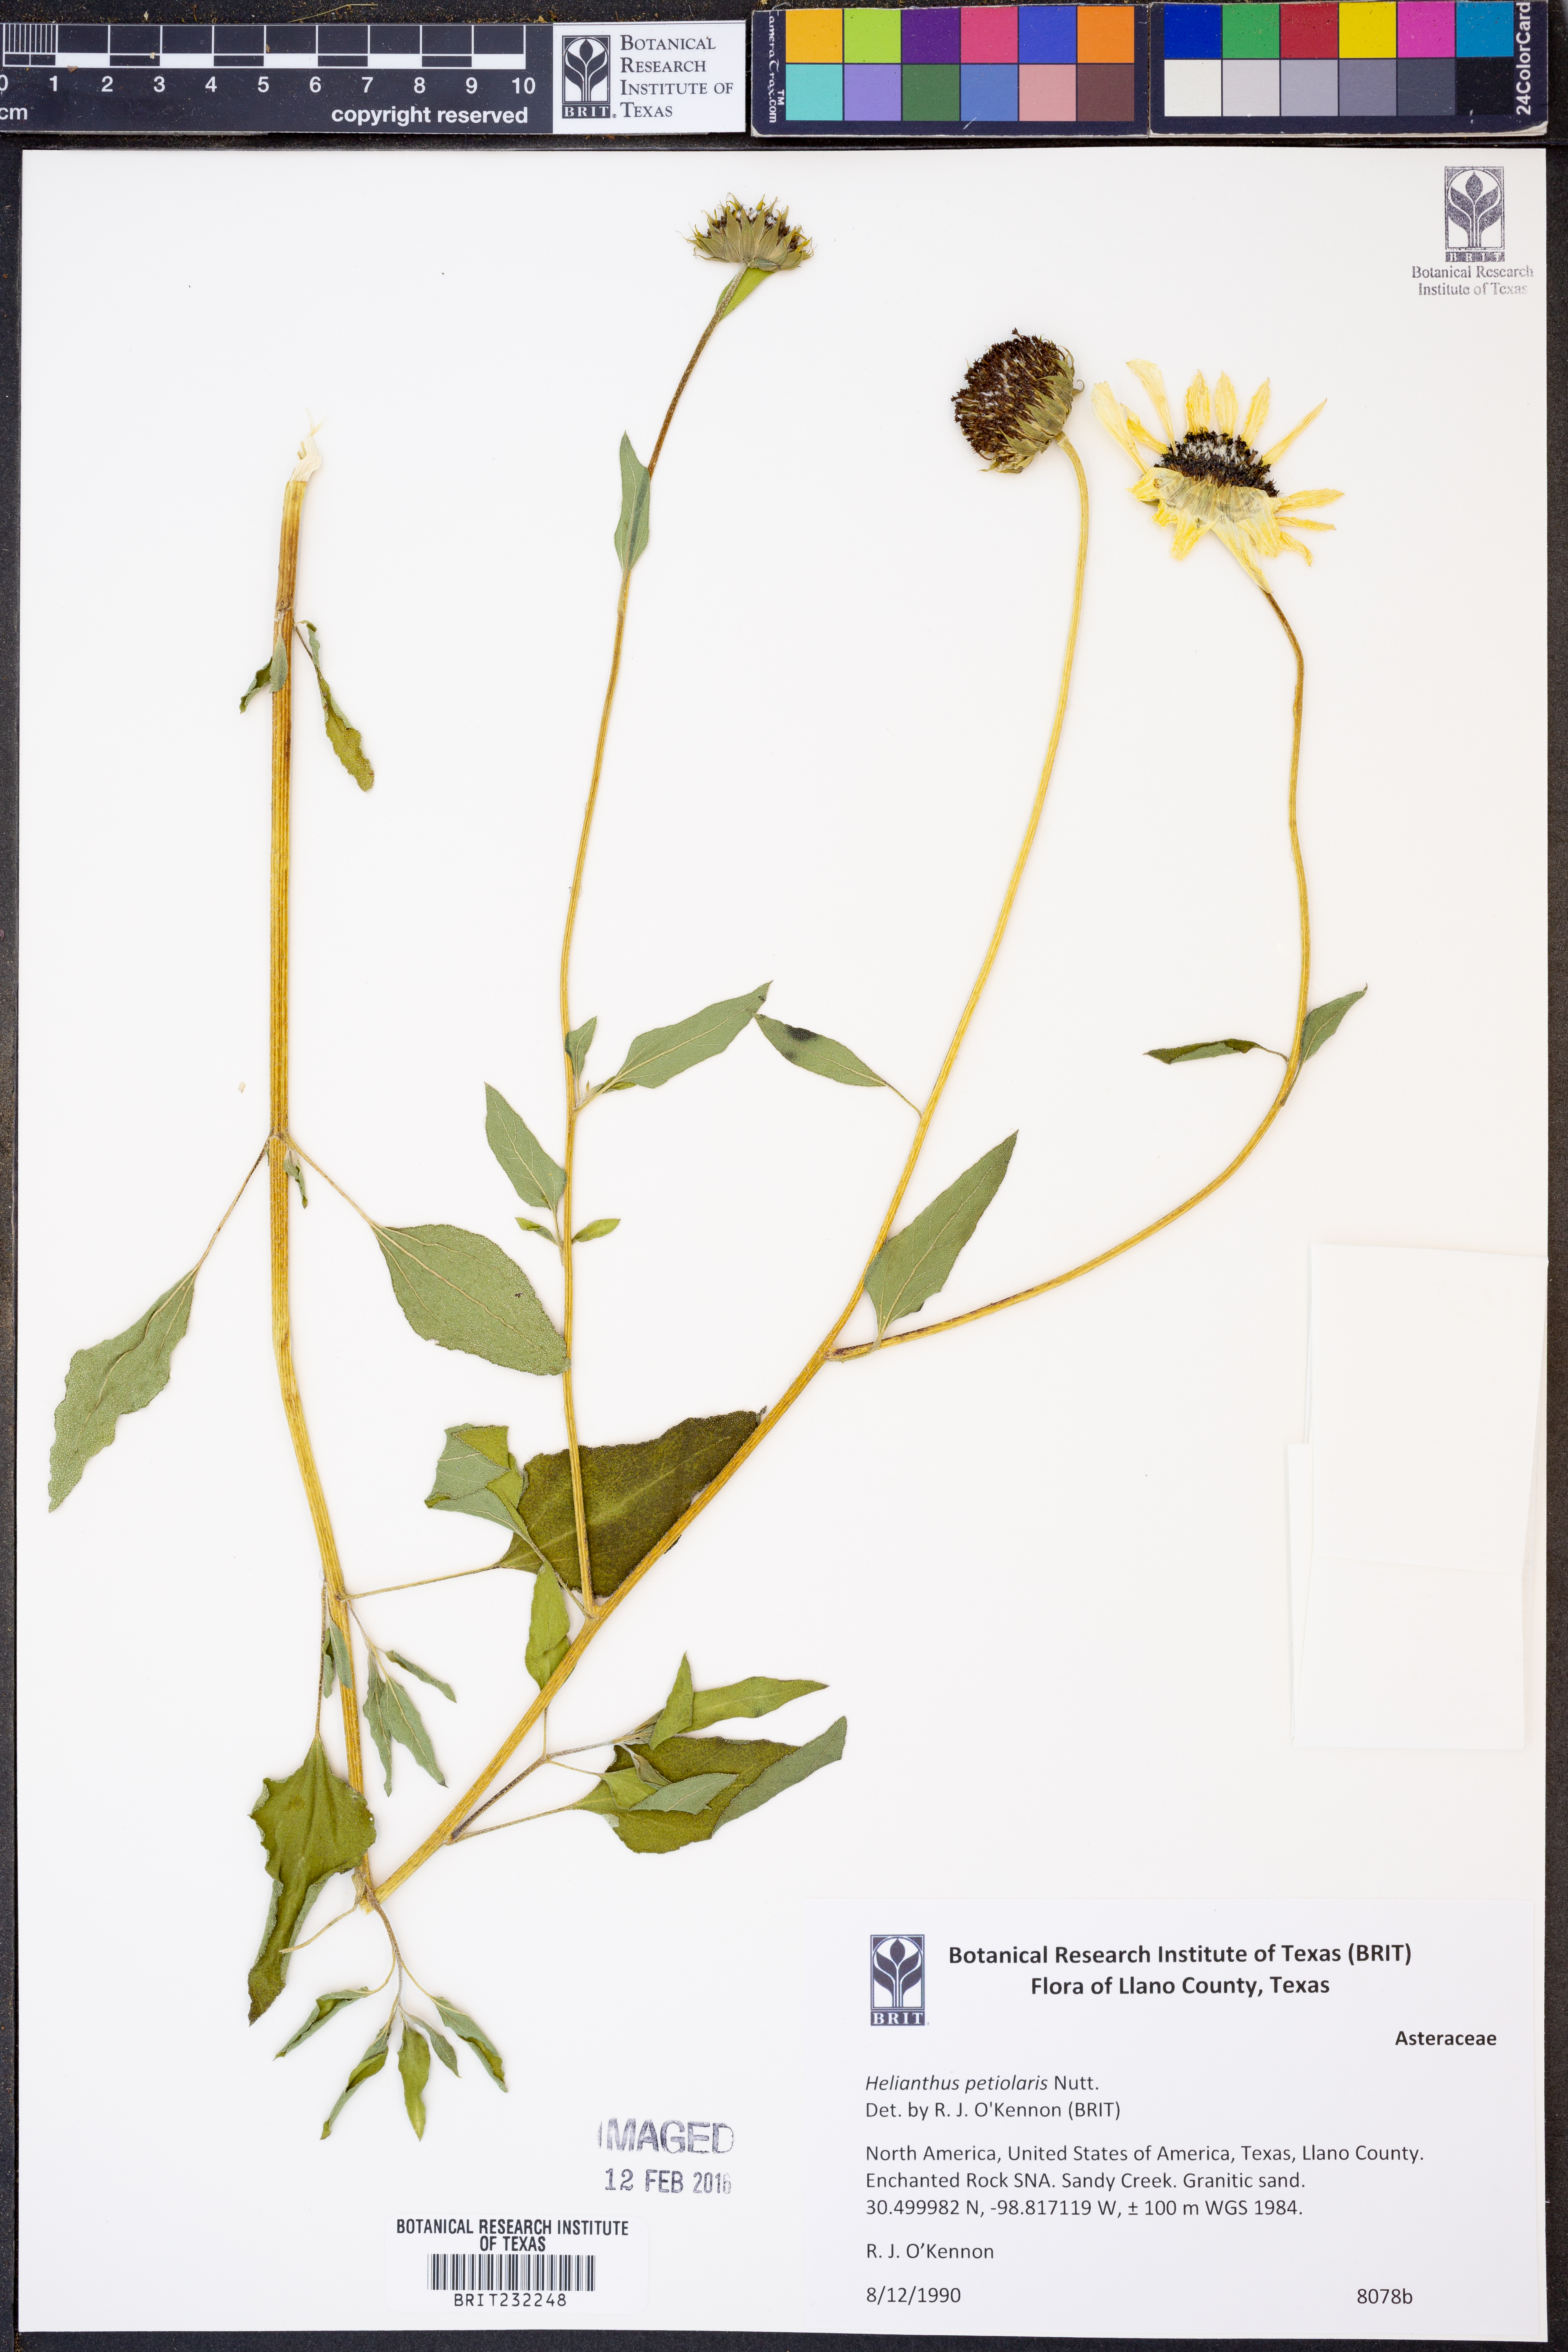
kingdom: Plantae
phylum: Tracheophyta
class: Magnoliopsida
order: Asterales
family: Asteraceae
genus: Helianthus
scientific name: Helianthus petiolaris
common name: Lesser sunflower
